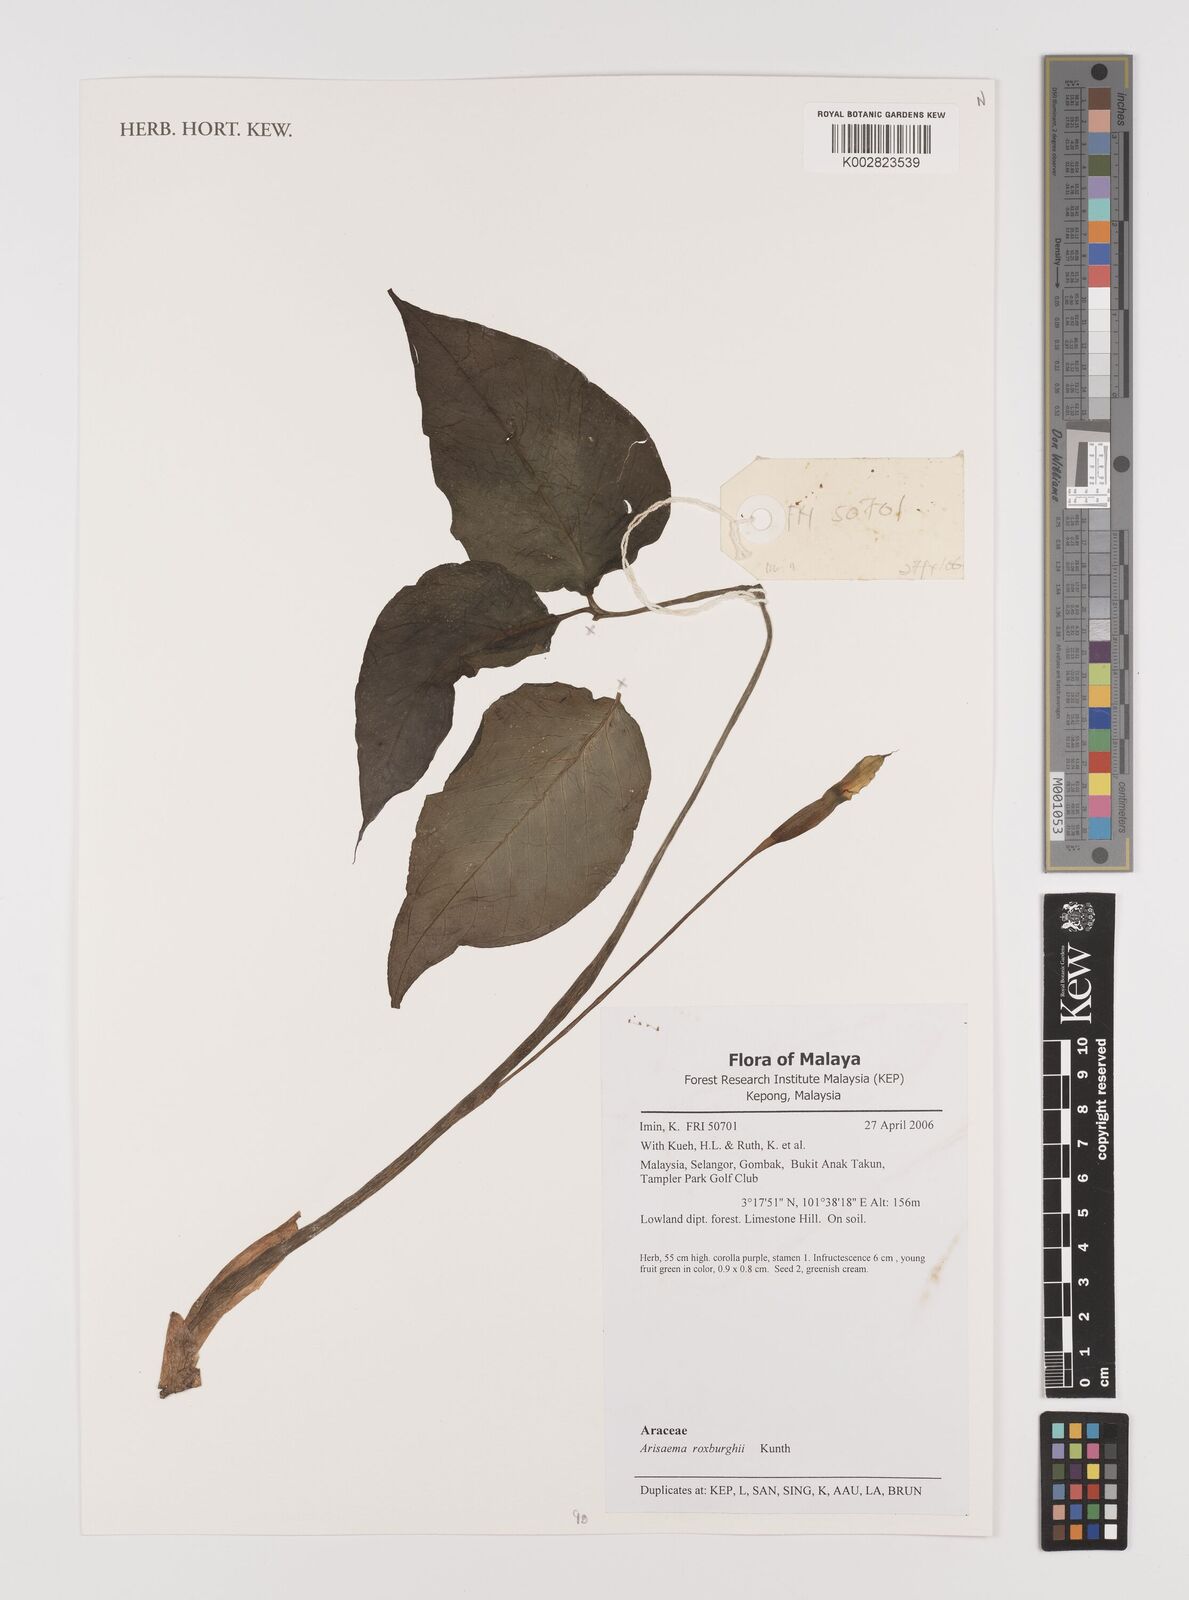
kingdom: Plantae
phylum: Tracheophyta
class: Liliopsida
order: Alismatales
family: Araceae
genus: Arisaema
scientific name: Arisaema roxburghii
